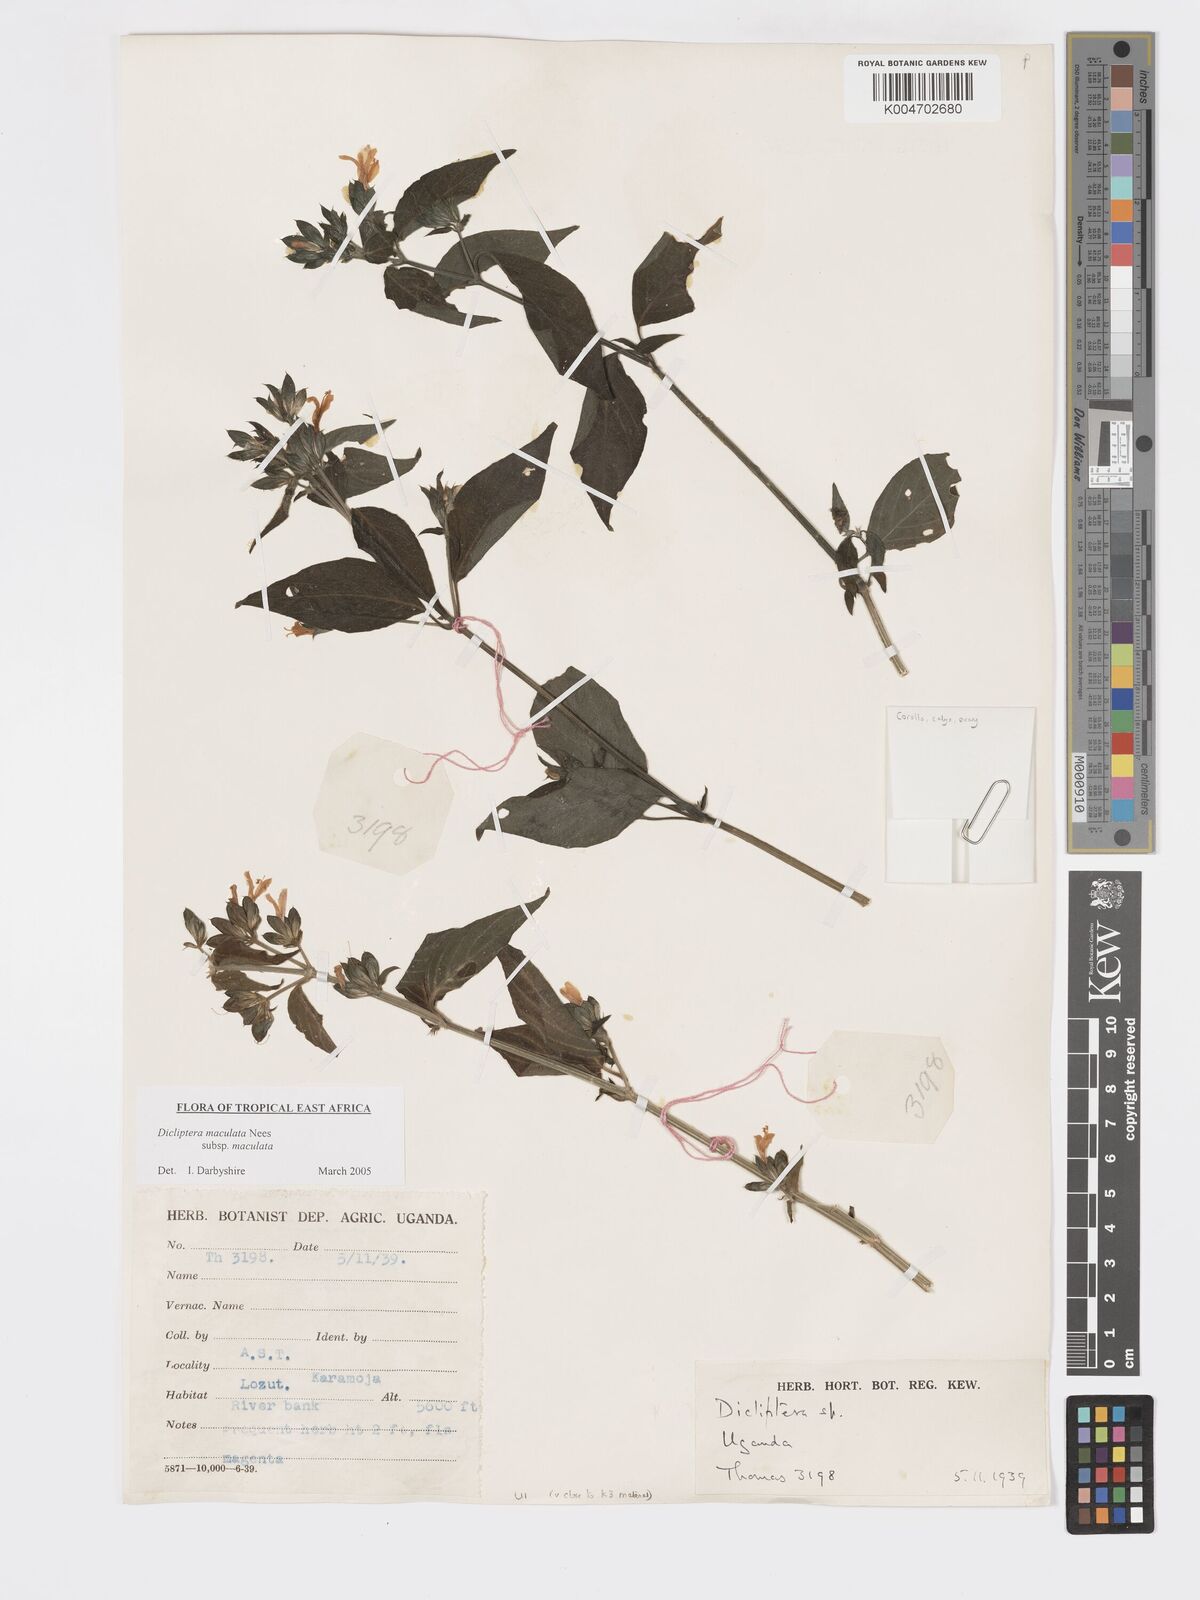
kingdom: Plantae
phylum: Tracheophyta
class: Magnoliopsida
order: Lamiales
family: Acanthaceae
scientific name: Acanthaceae
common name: Acanthaceae
